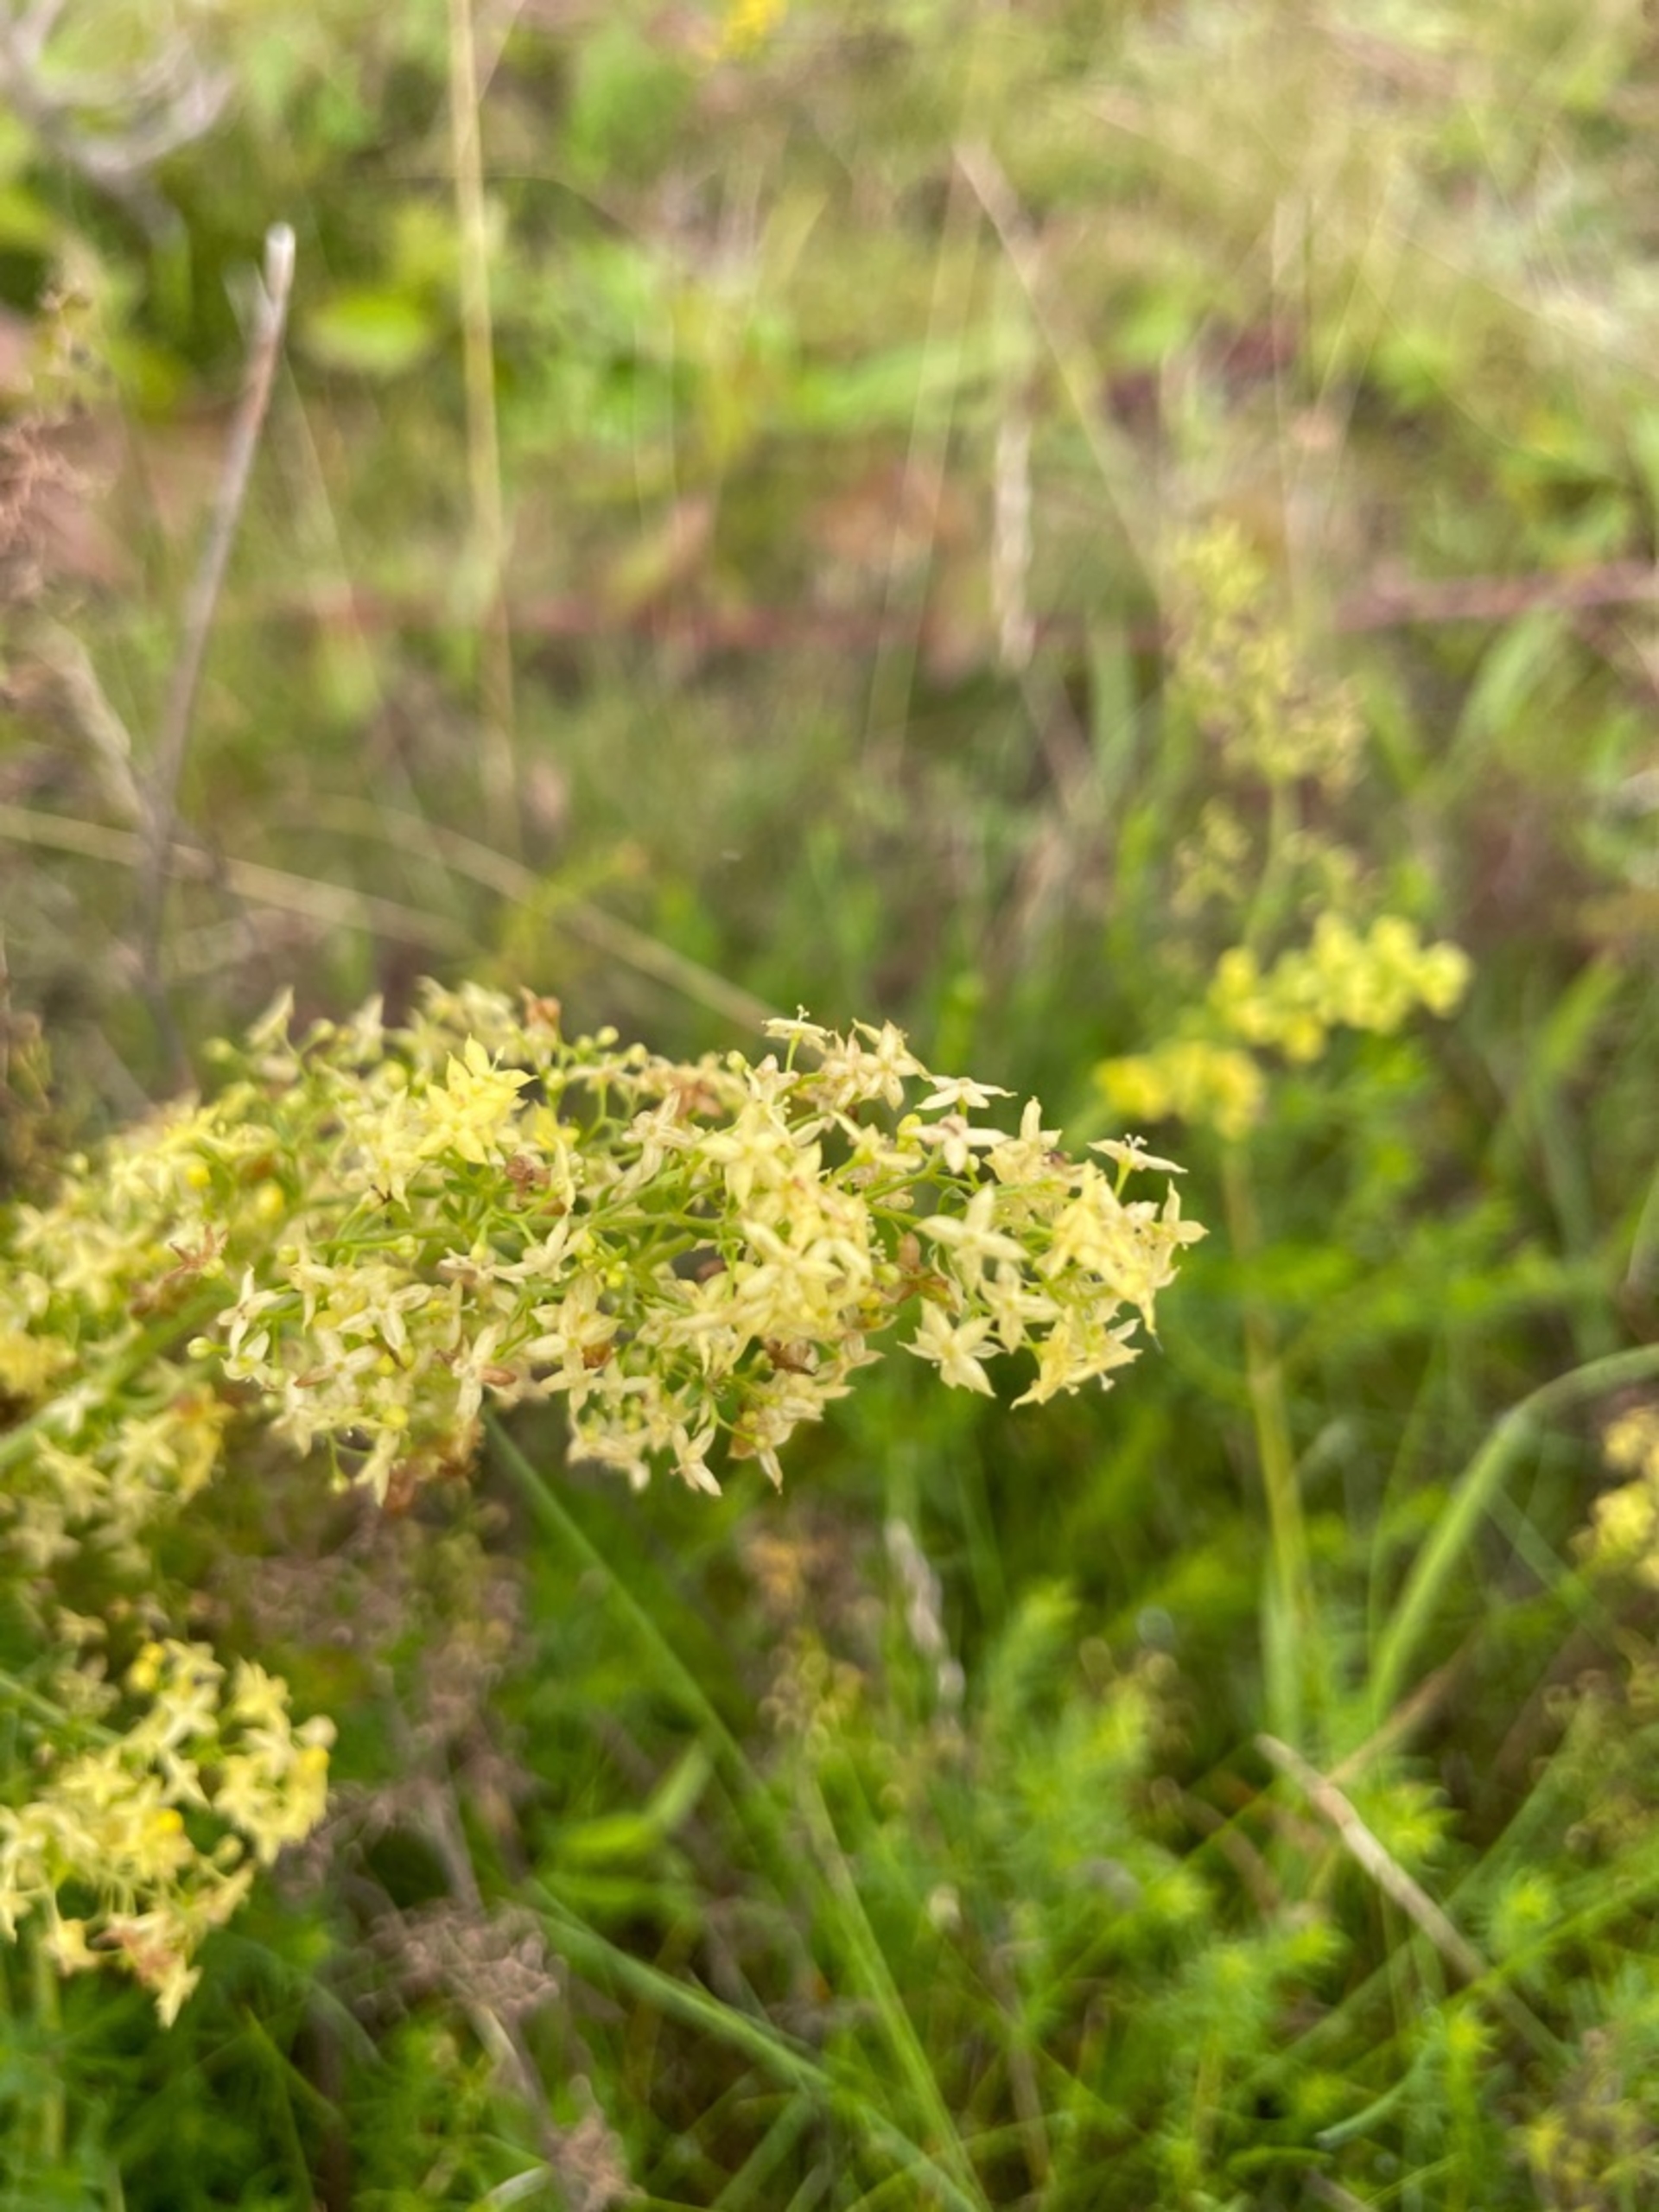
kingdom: Plantae
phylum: Tracheophyta
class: Magnoliopsida
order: Gentianales
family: Rubiaceae
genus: Galium
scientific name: Galium
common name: Hvidgul snerre
